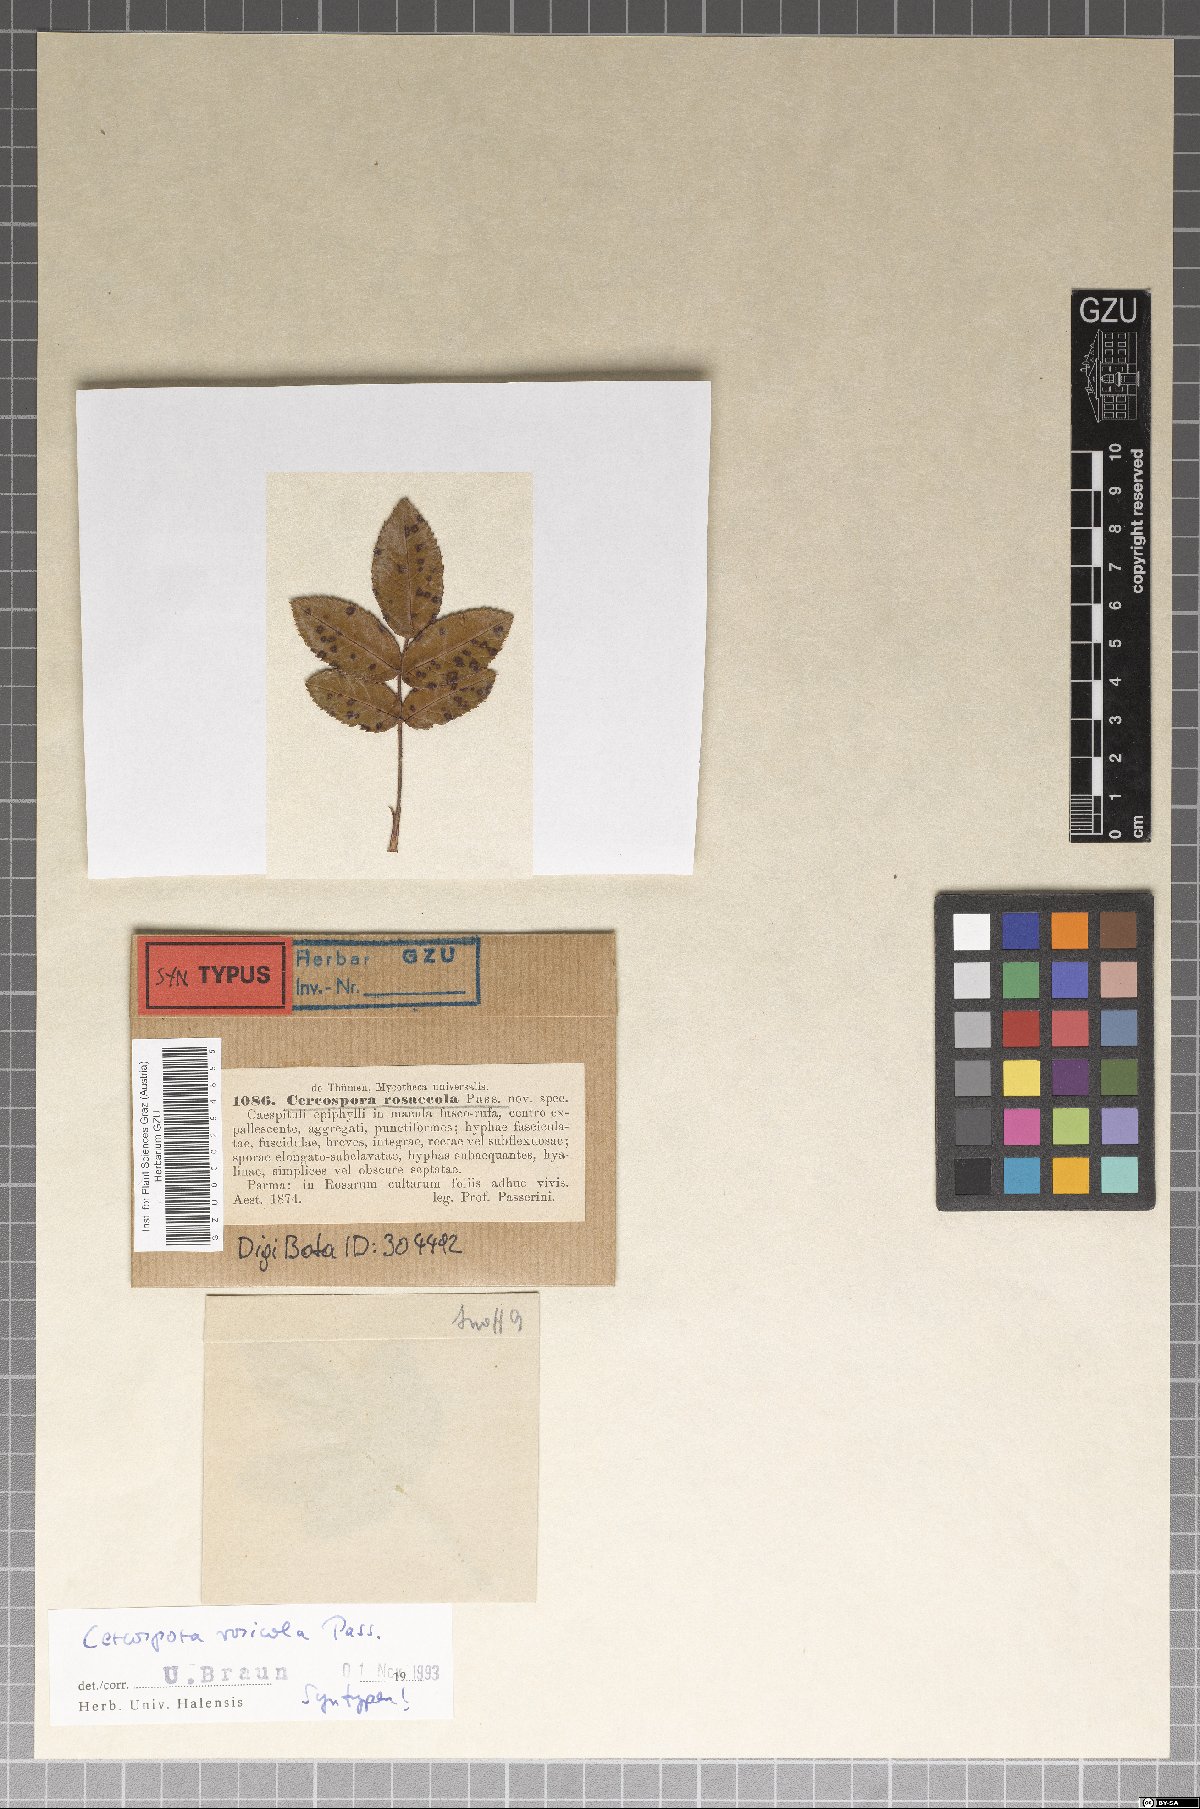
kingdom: Fungi
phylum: Ascomycota
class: Dothideomycetes
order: Mycosphaerellales
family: Mycosphaerellaceae
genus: Rosisphaerella
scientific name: Rosisphaerella rosicola
